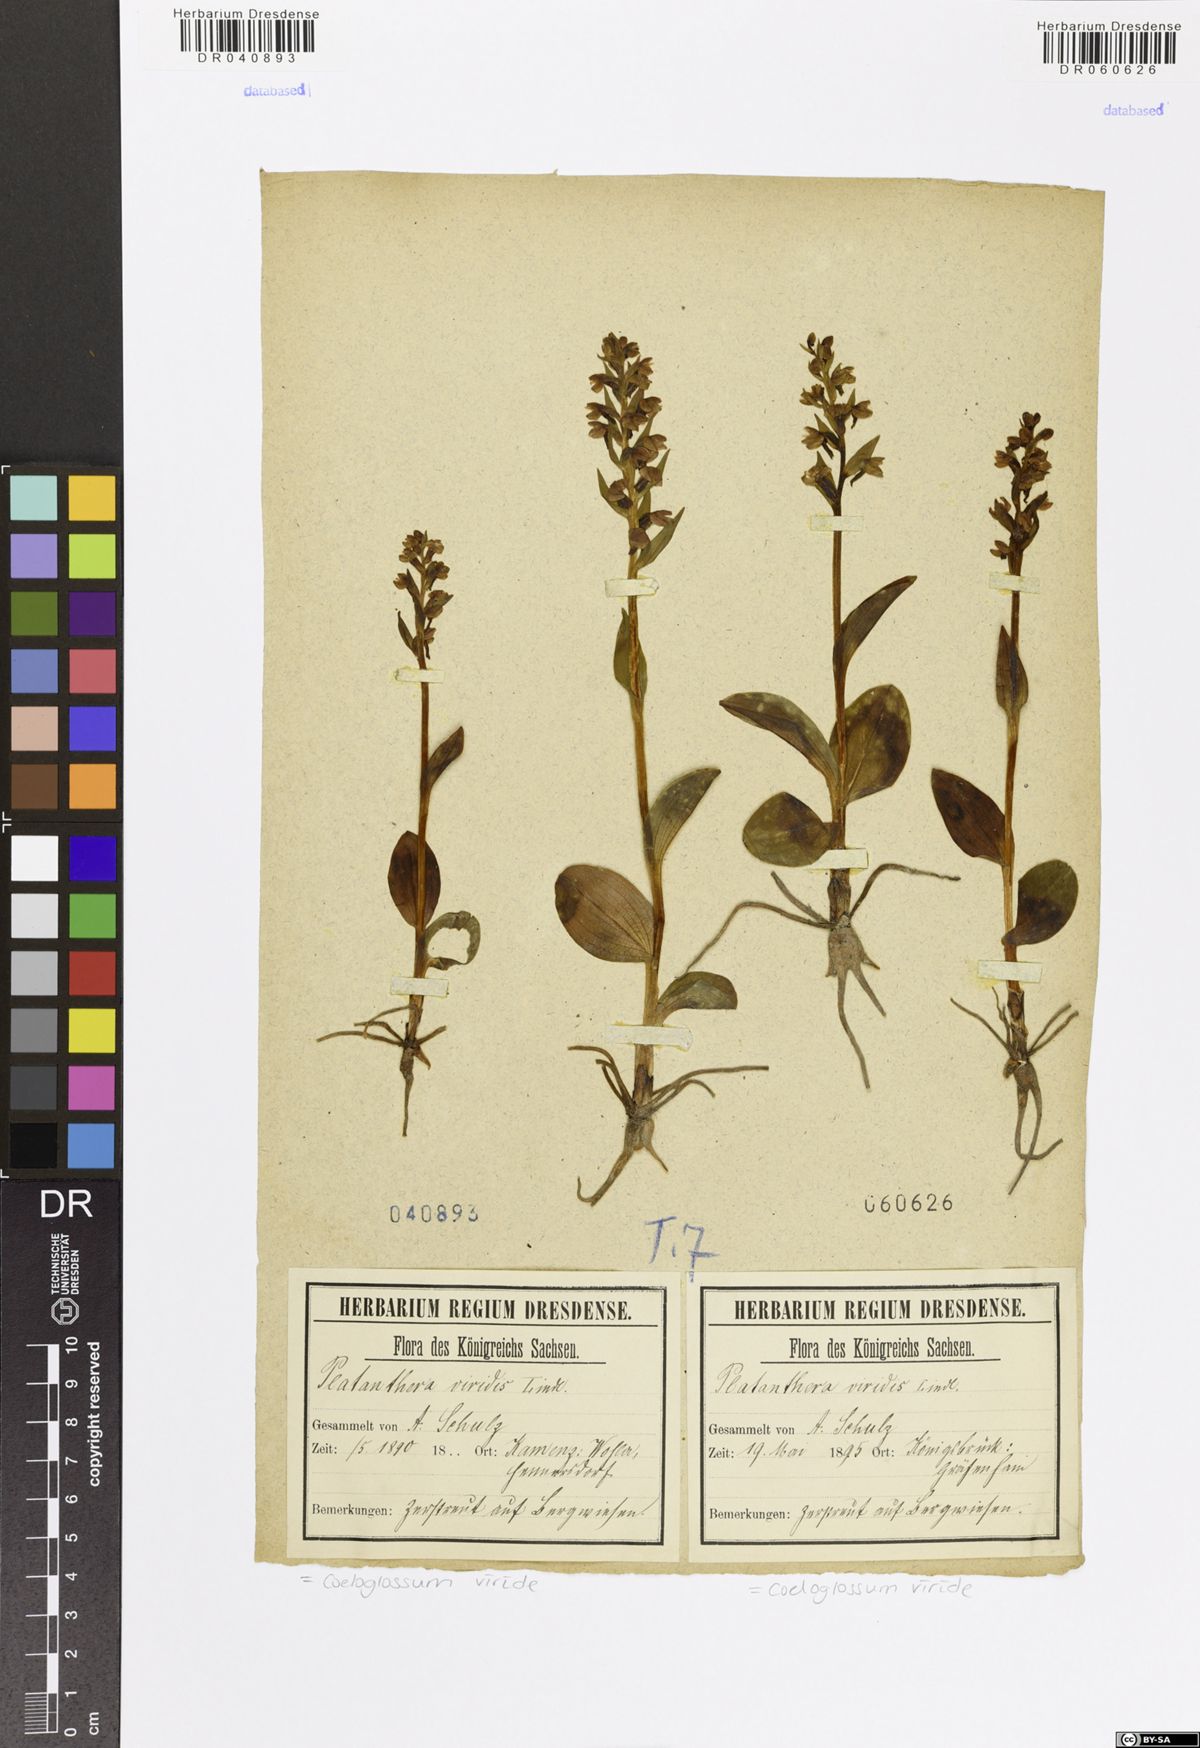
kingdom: Plantae
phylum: Tracheophyta
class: Liliopsida
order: Asparagales
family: Orchidaceae
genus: Dactylorhiza
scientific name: Dactylorhiza viridis
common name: Longbract frog orchid
